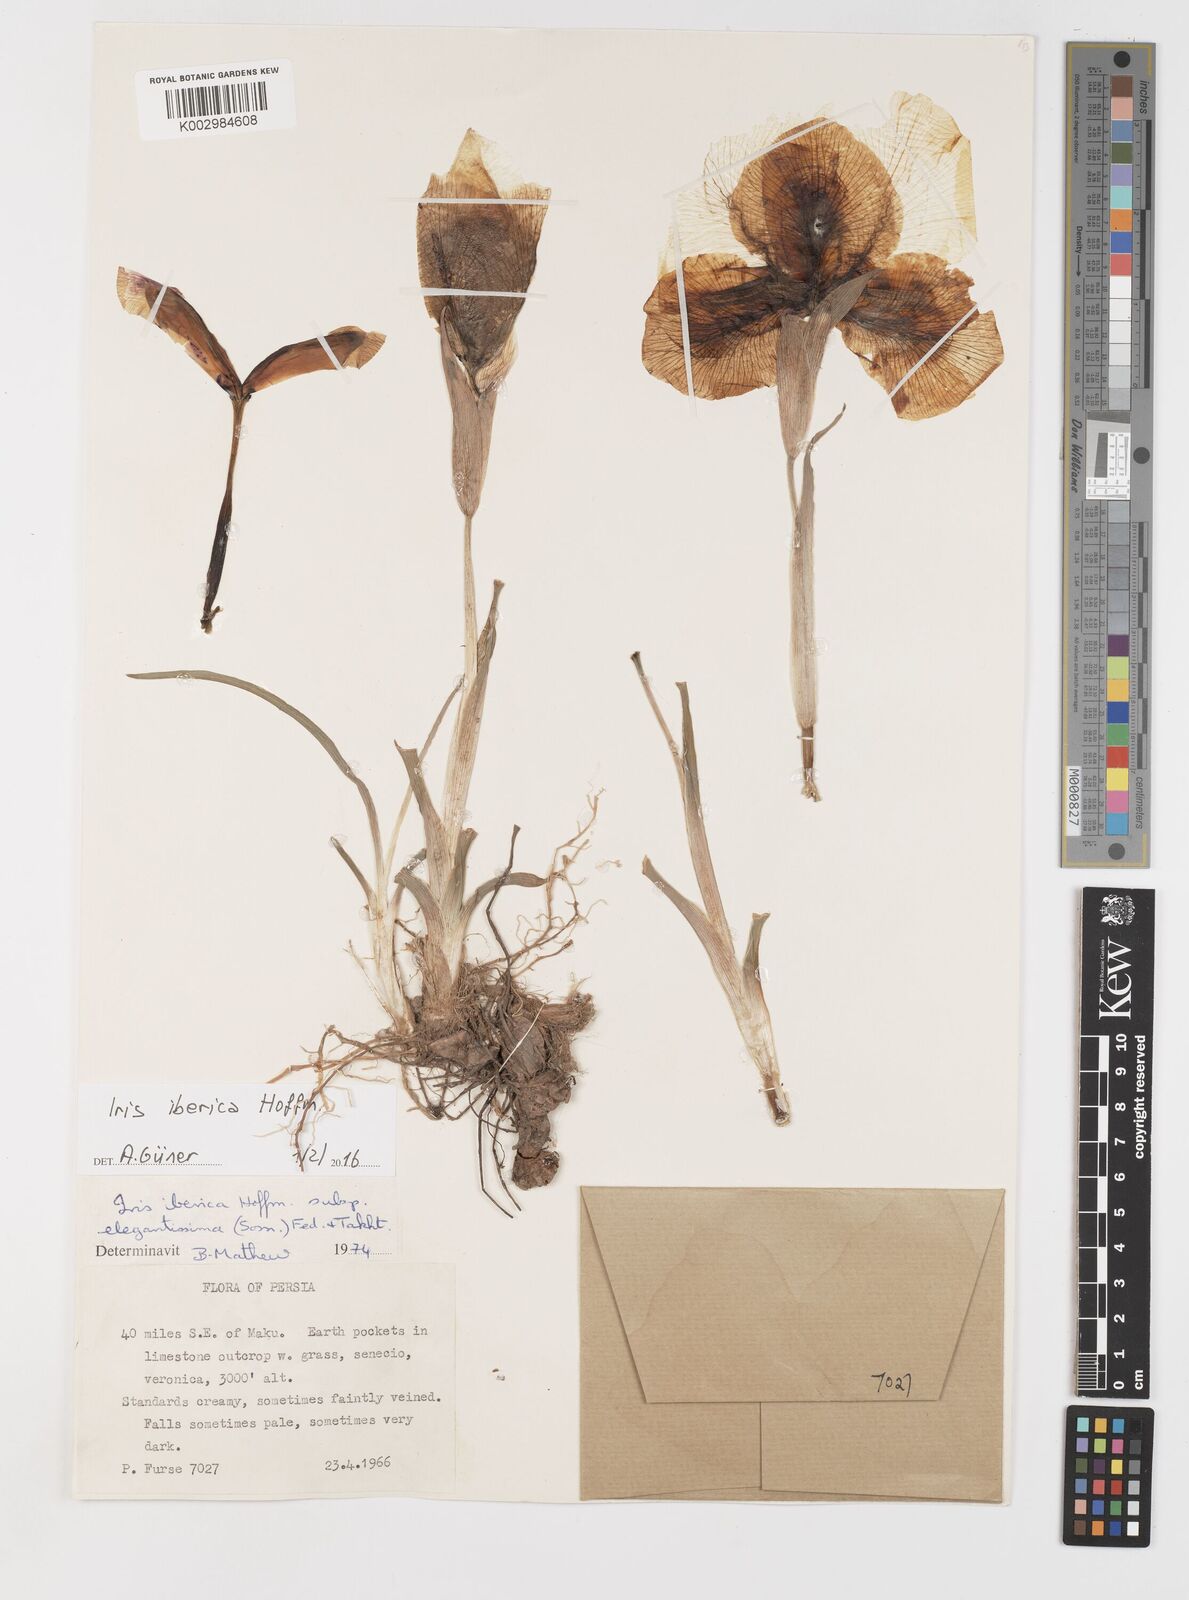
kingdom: Plantae
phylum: Tracheophyta
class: Liliopsida
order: Asparagales
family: Iridaceae
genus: Iris
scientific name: Iris iberica
